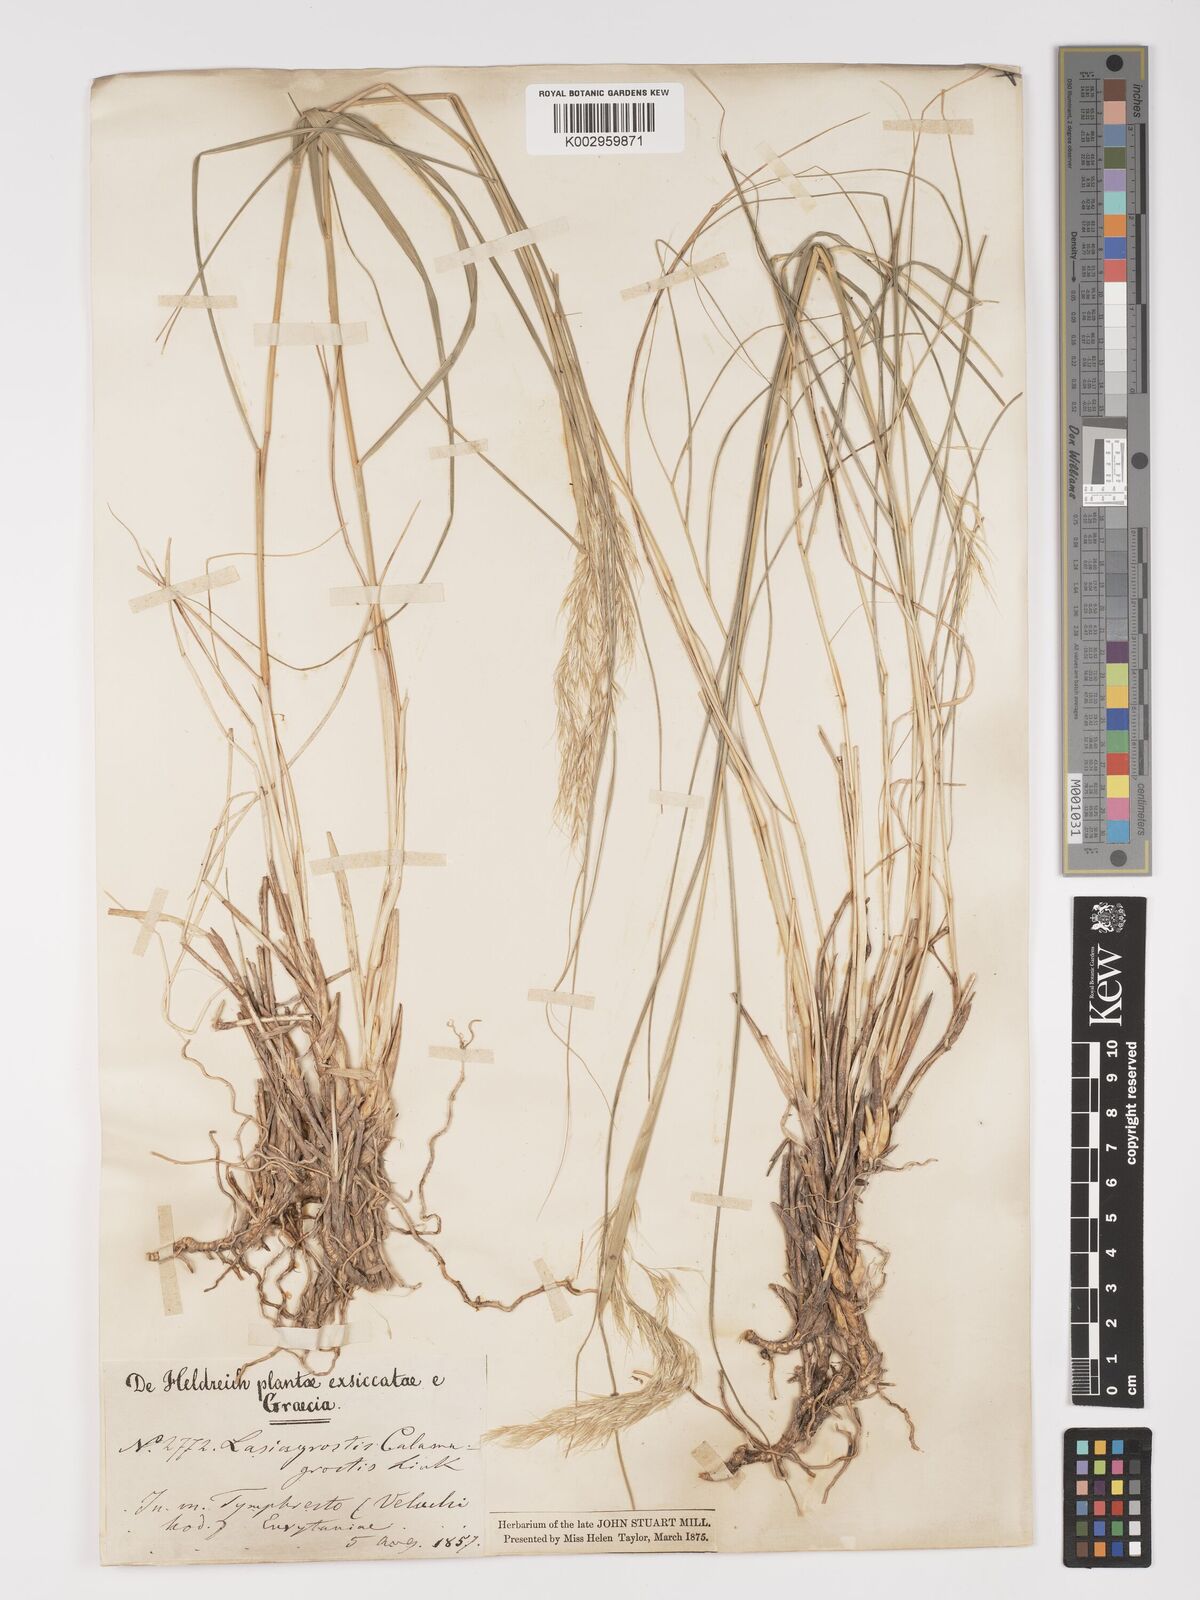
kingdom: Plantae
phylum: Tracheophyta
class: Liliopsida
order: Poales
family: Poaceae
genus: Achnatherum
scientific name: Achnatherum calamagrostis
